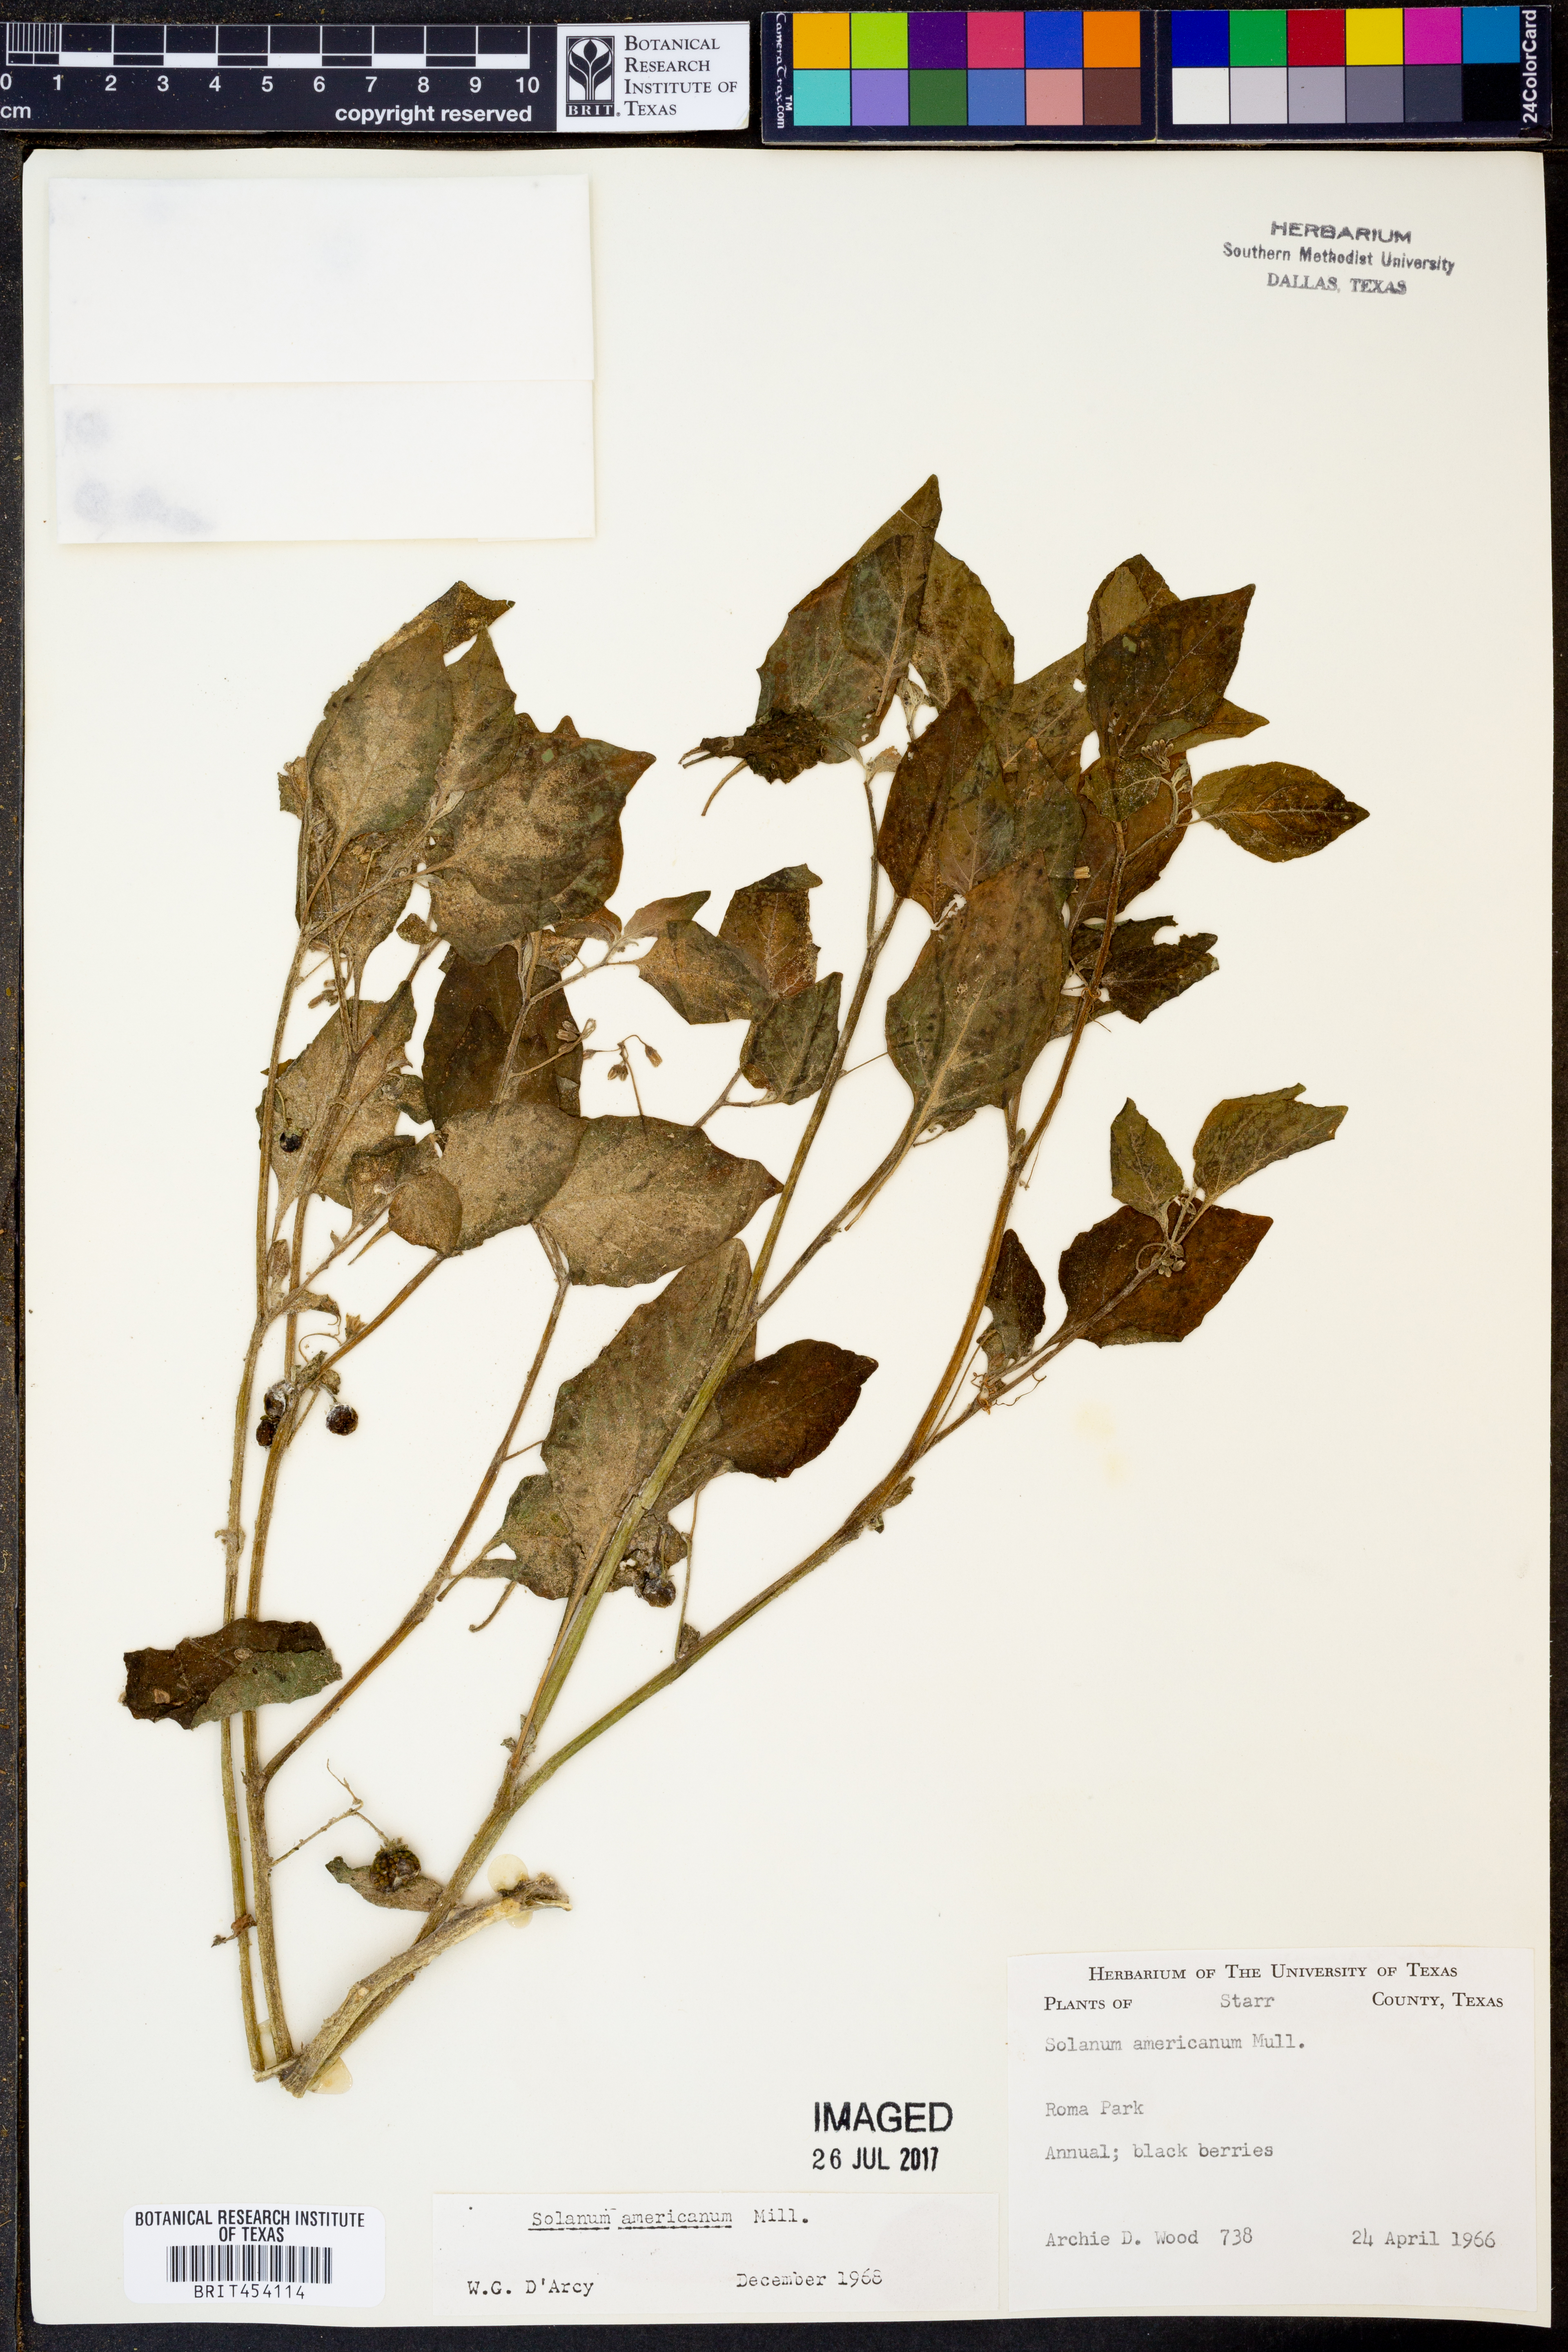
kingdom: Plantae
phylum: Tracheophyta
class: Magnoliopsida
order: Solanales
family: Solanaceae
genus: Solanum
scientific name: Solanum americanum
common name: American black nightshade
